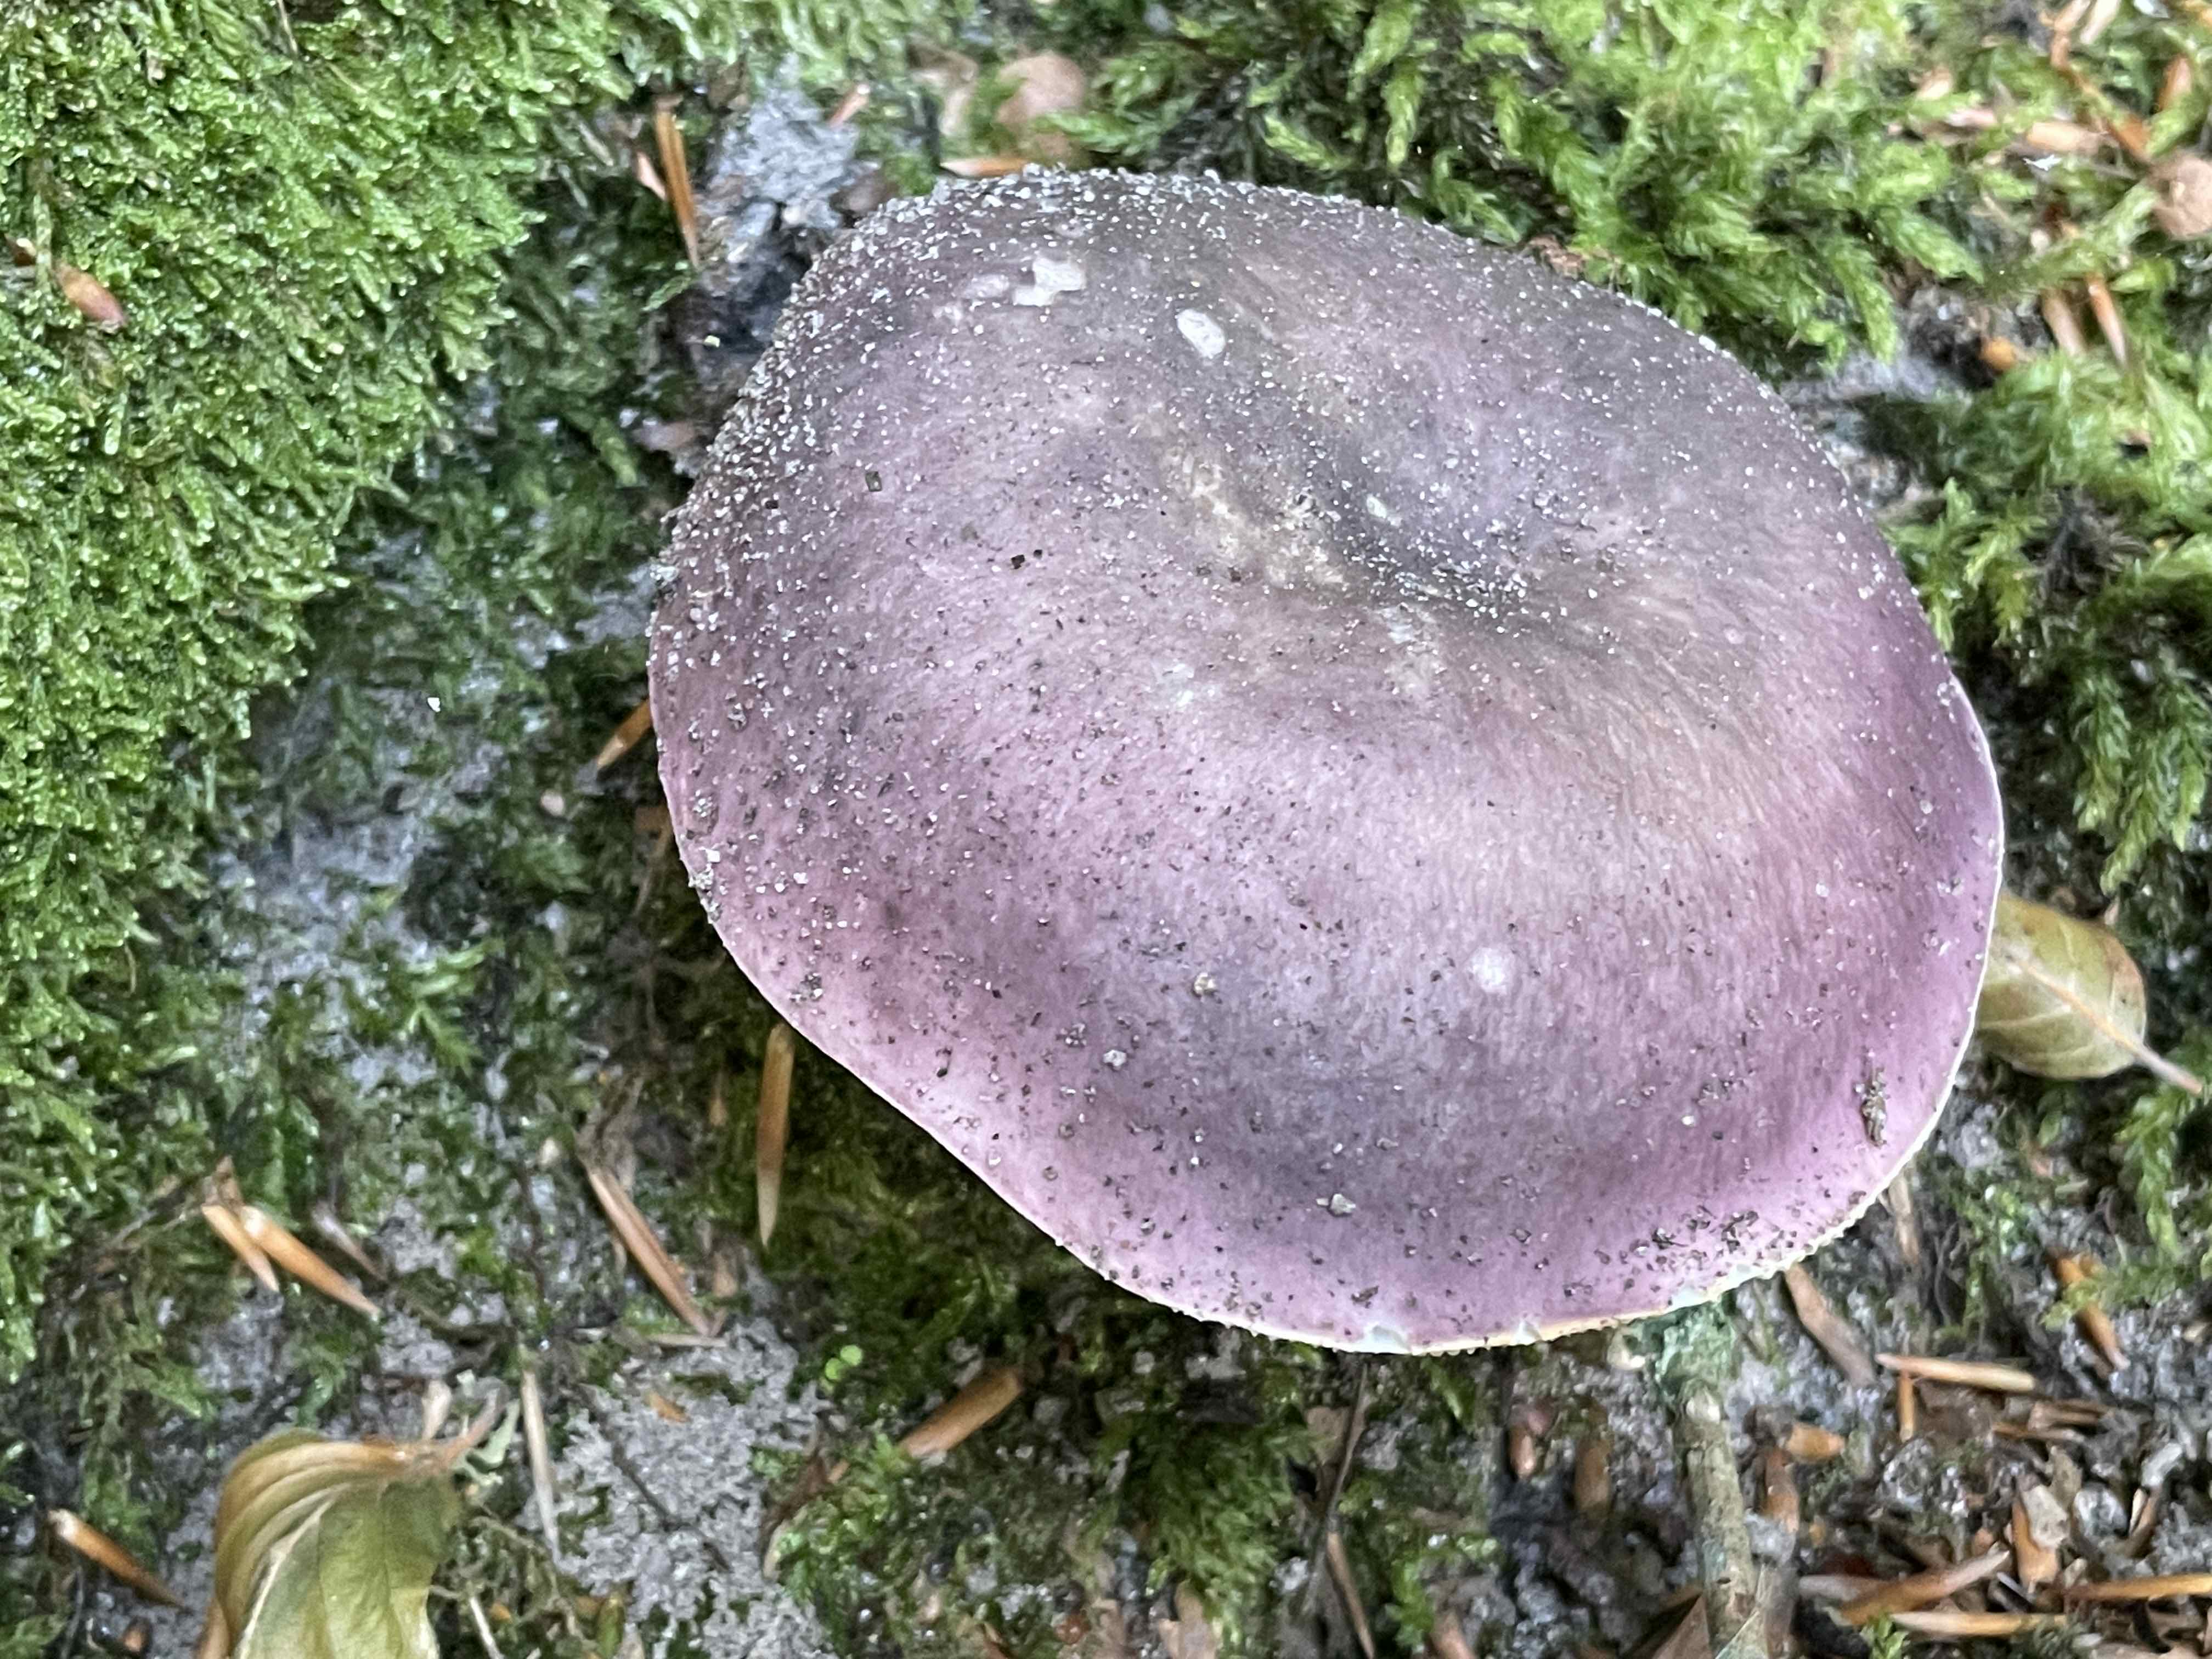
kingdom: Fungi
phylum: Basidiomycota
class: Agaricomycetes
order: Russulales
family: Russulaceae
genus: Russula
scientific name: Russula cyanoxantha
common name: broget skørhat
